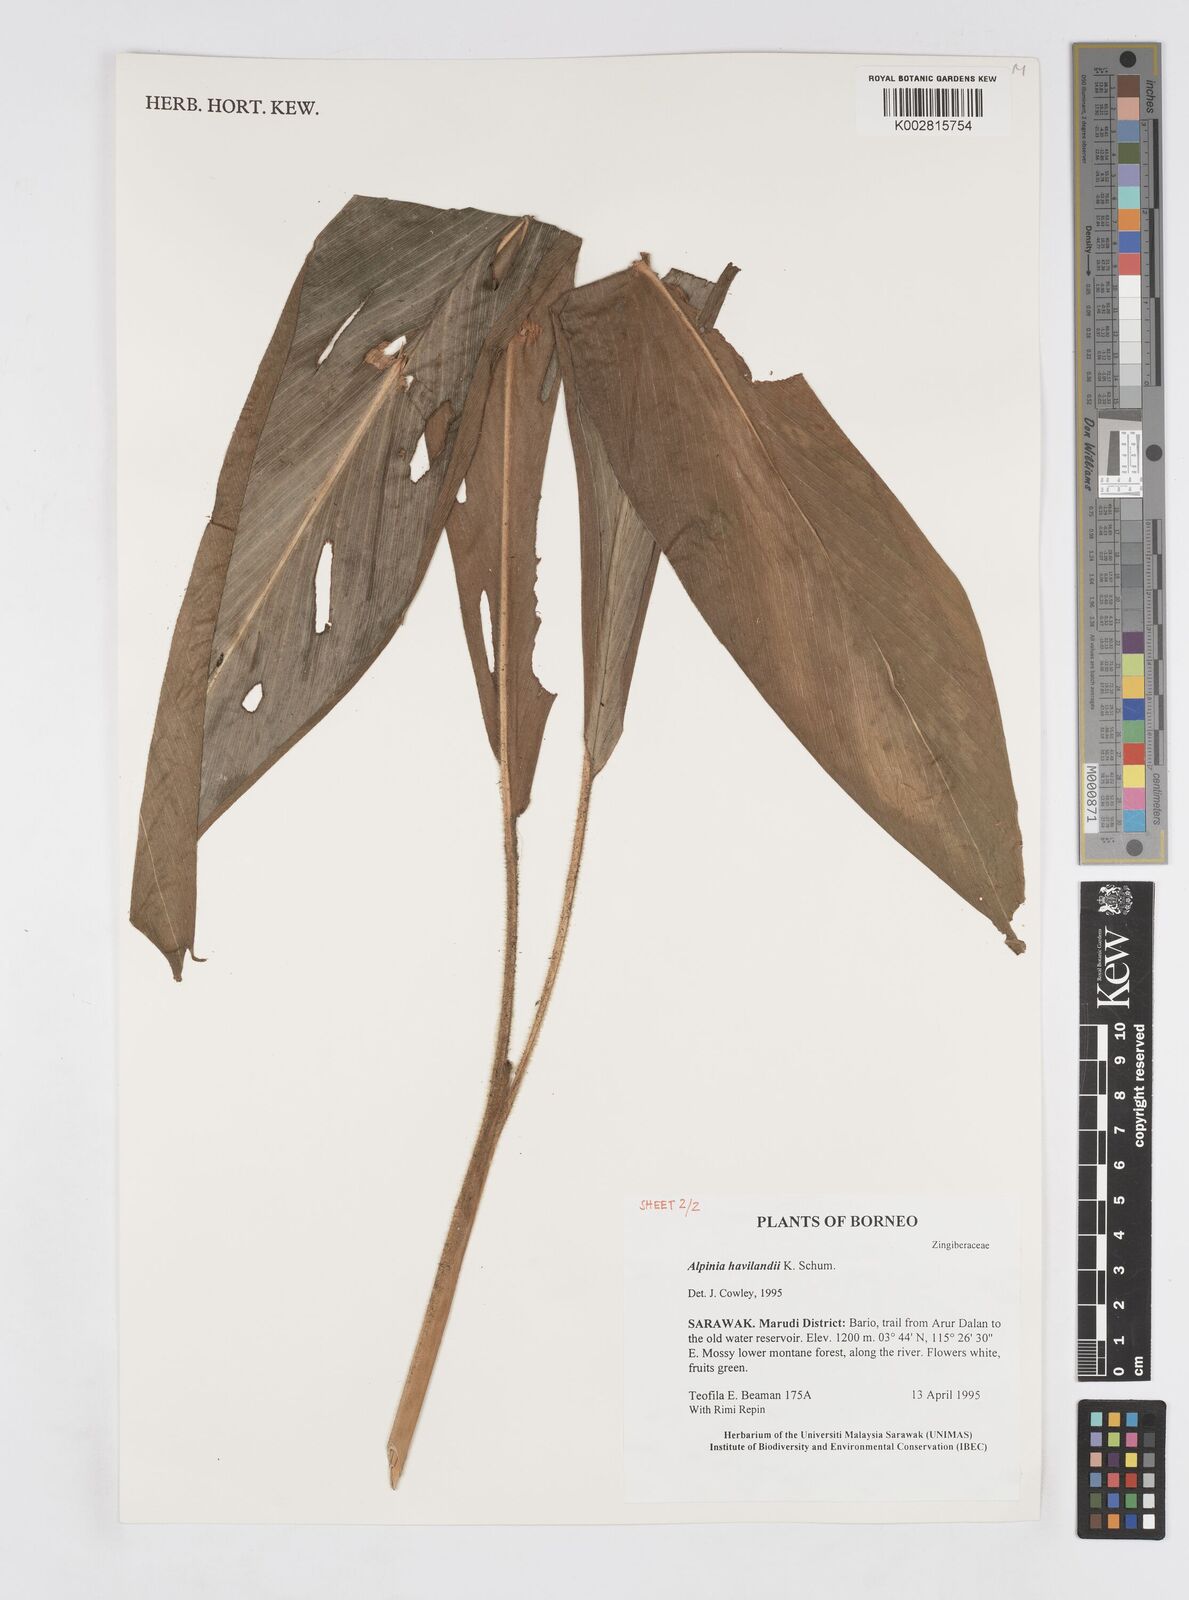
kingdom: Plantae
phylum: Tracheophyta
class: Liliopsida
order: Zingiberales
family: Zingiberaceae
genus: Alpinia
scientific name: Alpinia havilandii
